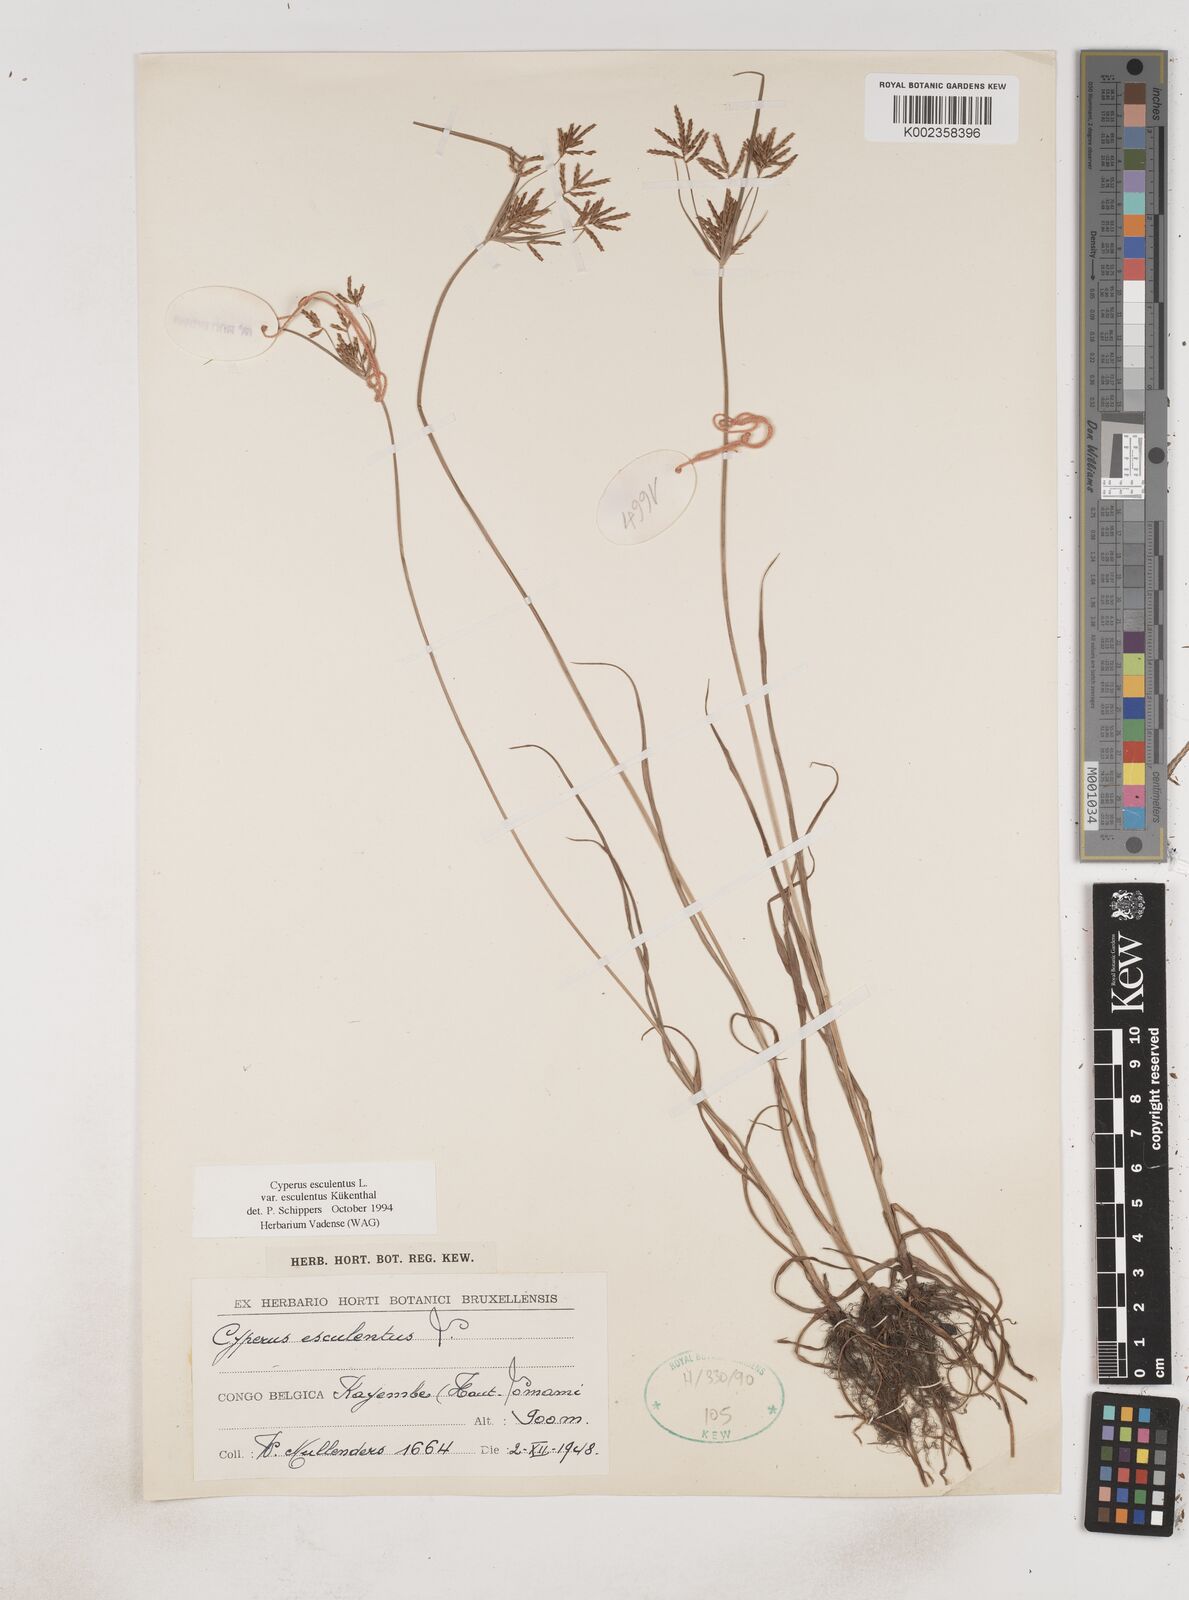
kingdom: Plantae
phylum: Tracheophyta
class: Liliopsida
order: Poales
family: Cyperaceae
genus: Cyperus
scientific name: Cyperus esculentus
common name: Yellow nutsedge
